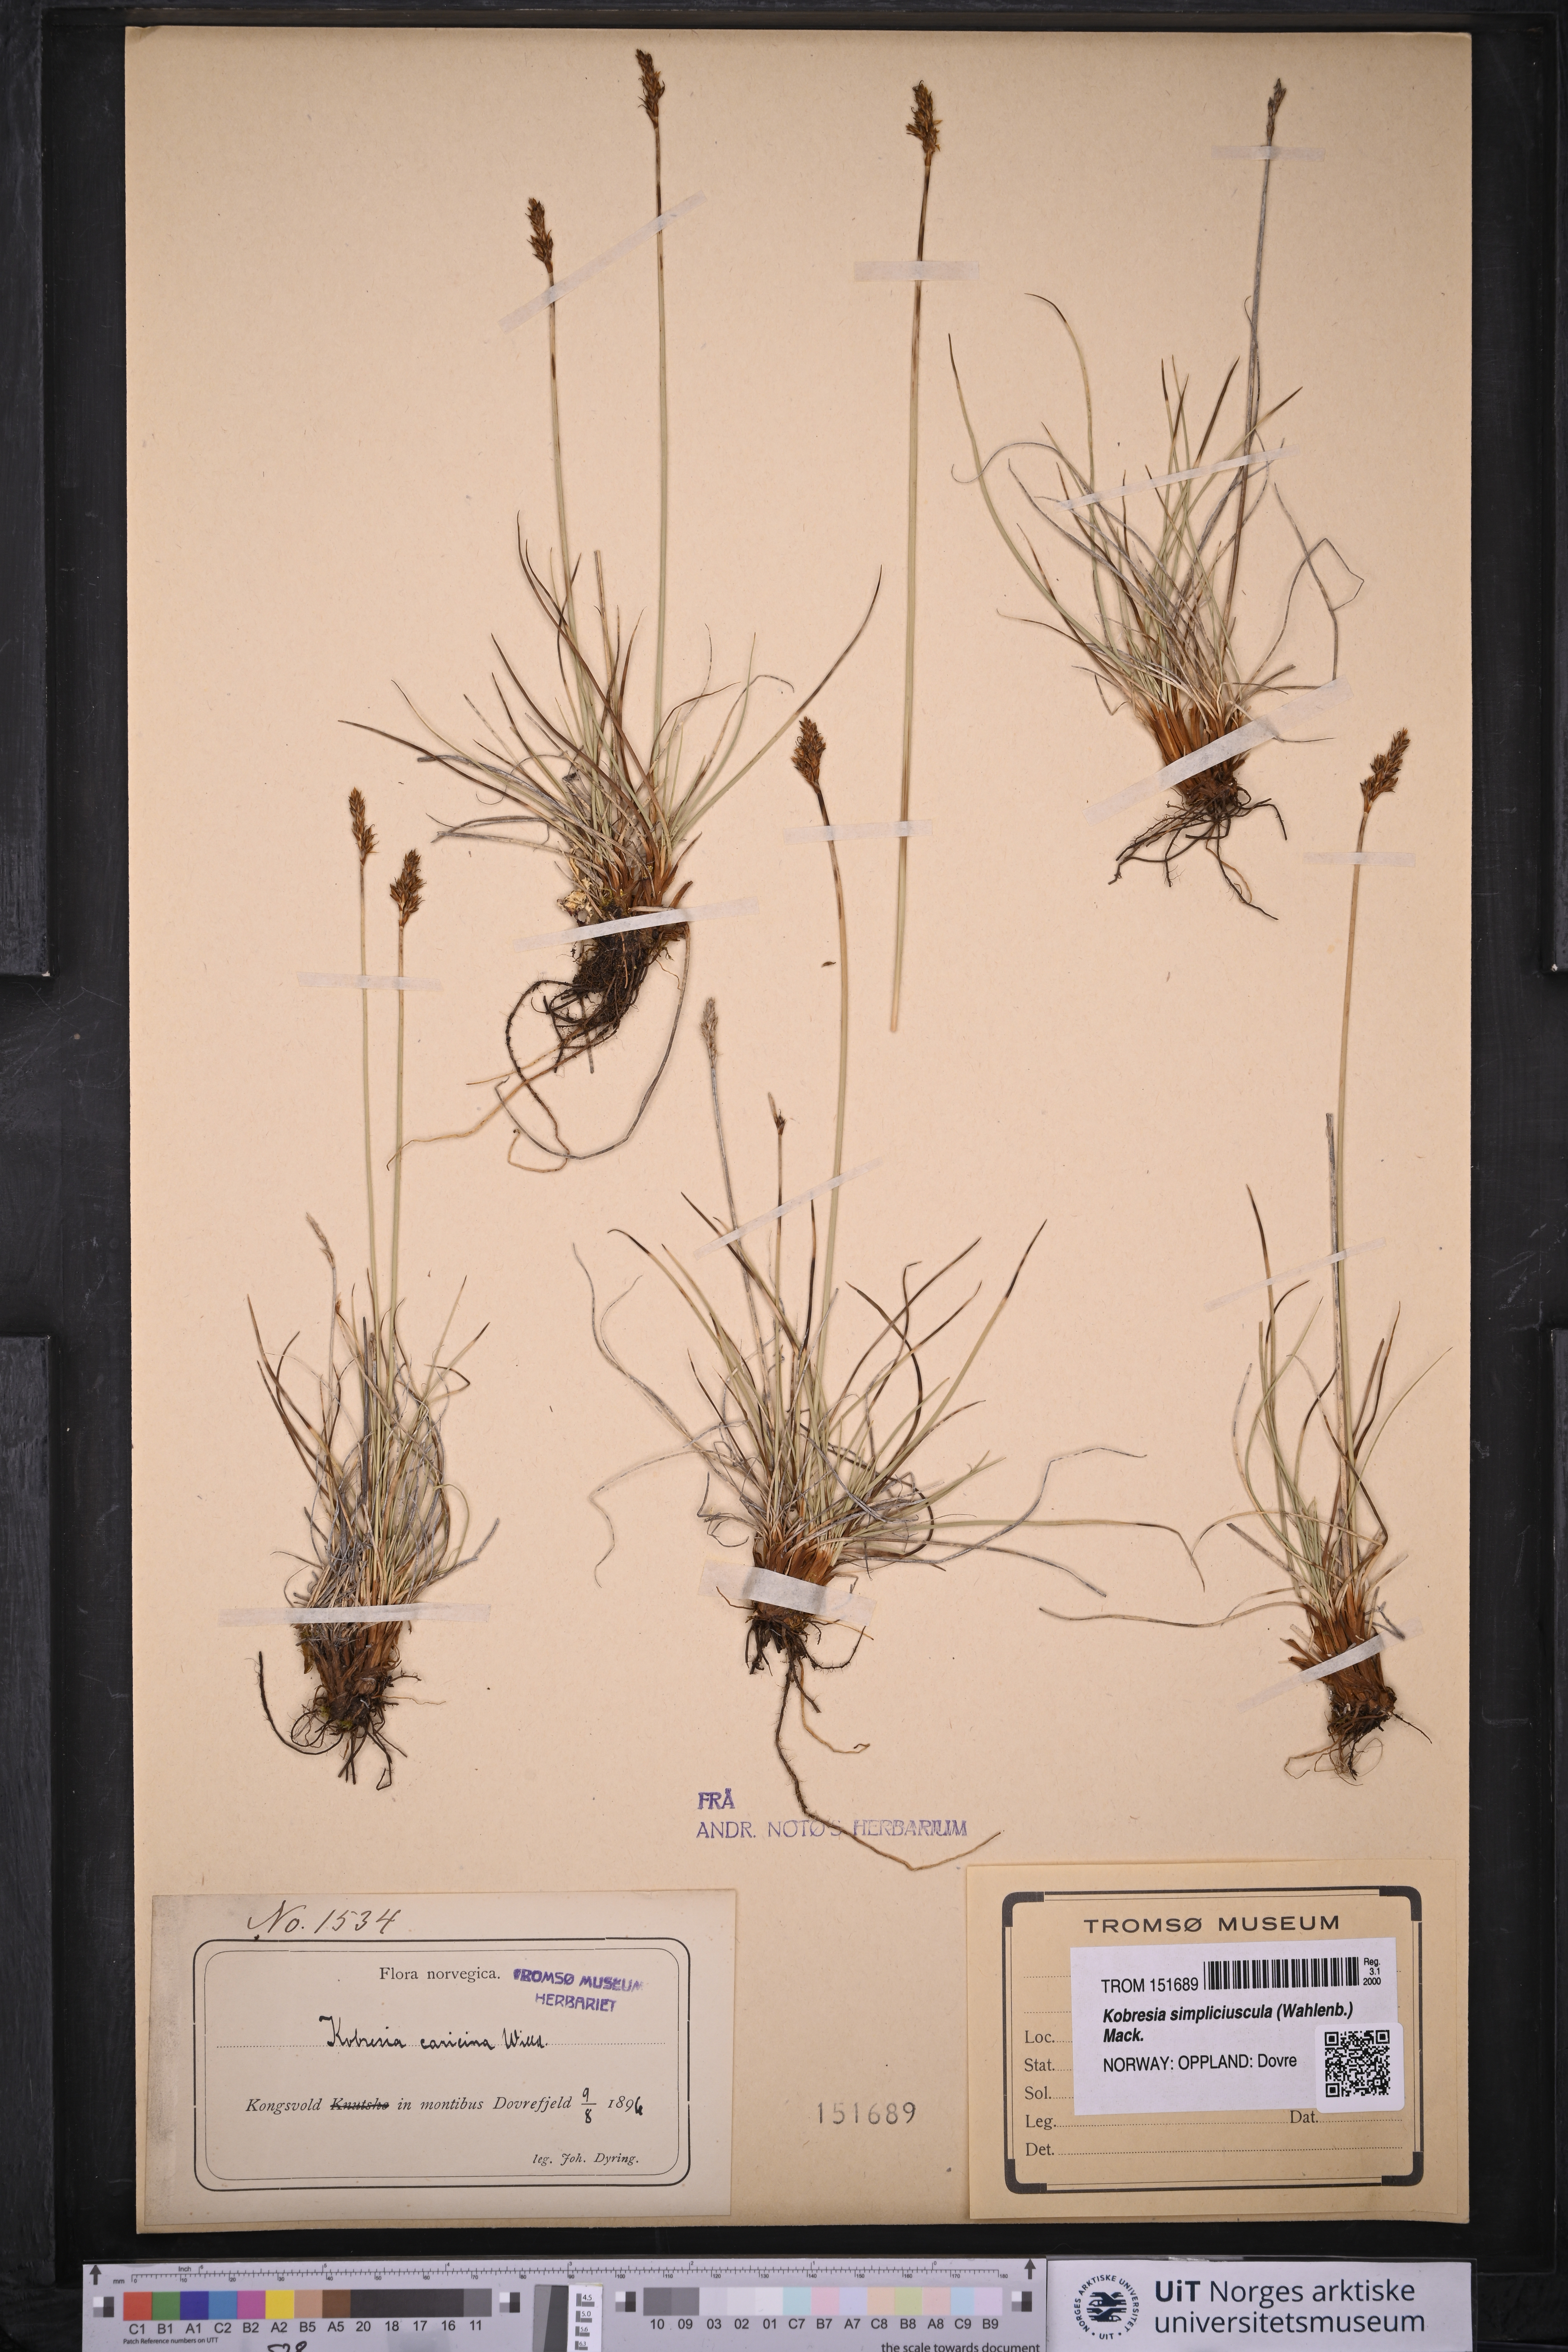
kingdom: Plantae
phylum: Tracheophyta
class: Liliopsida
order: Poales
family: Cyperaceae
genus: Carex
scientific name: Carex simpliciuscula
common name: Simple bog sedge
